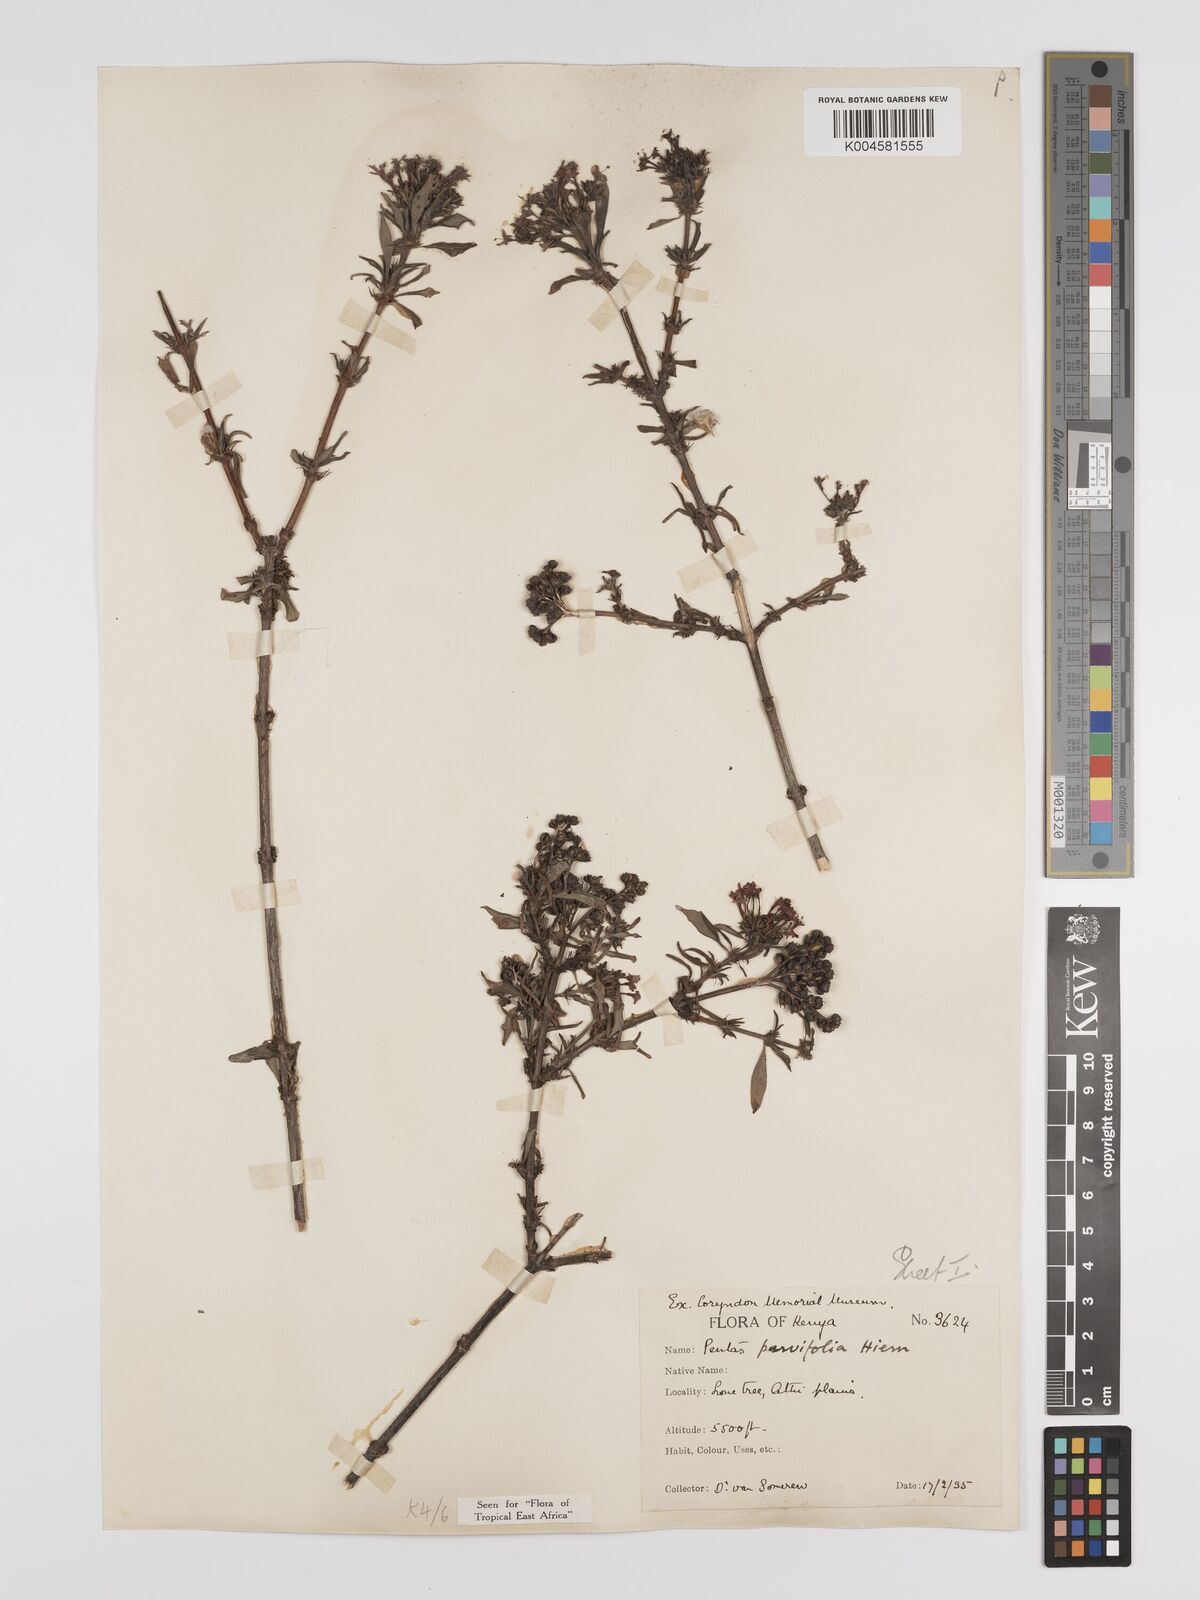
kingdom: Plantae
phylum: Tracheophyta
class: Magnoliopsida
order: Gentianales
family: Rubiaceae
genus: Rhodopentas
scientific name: Rhodopentas parvifolia
